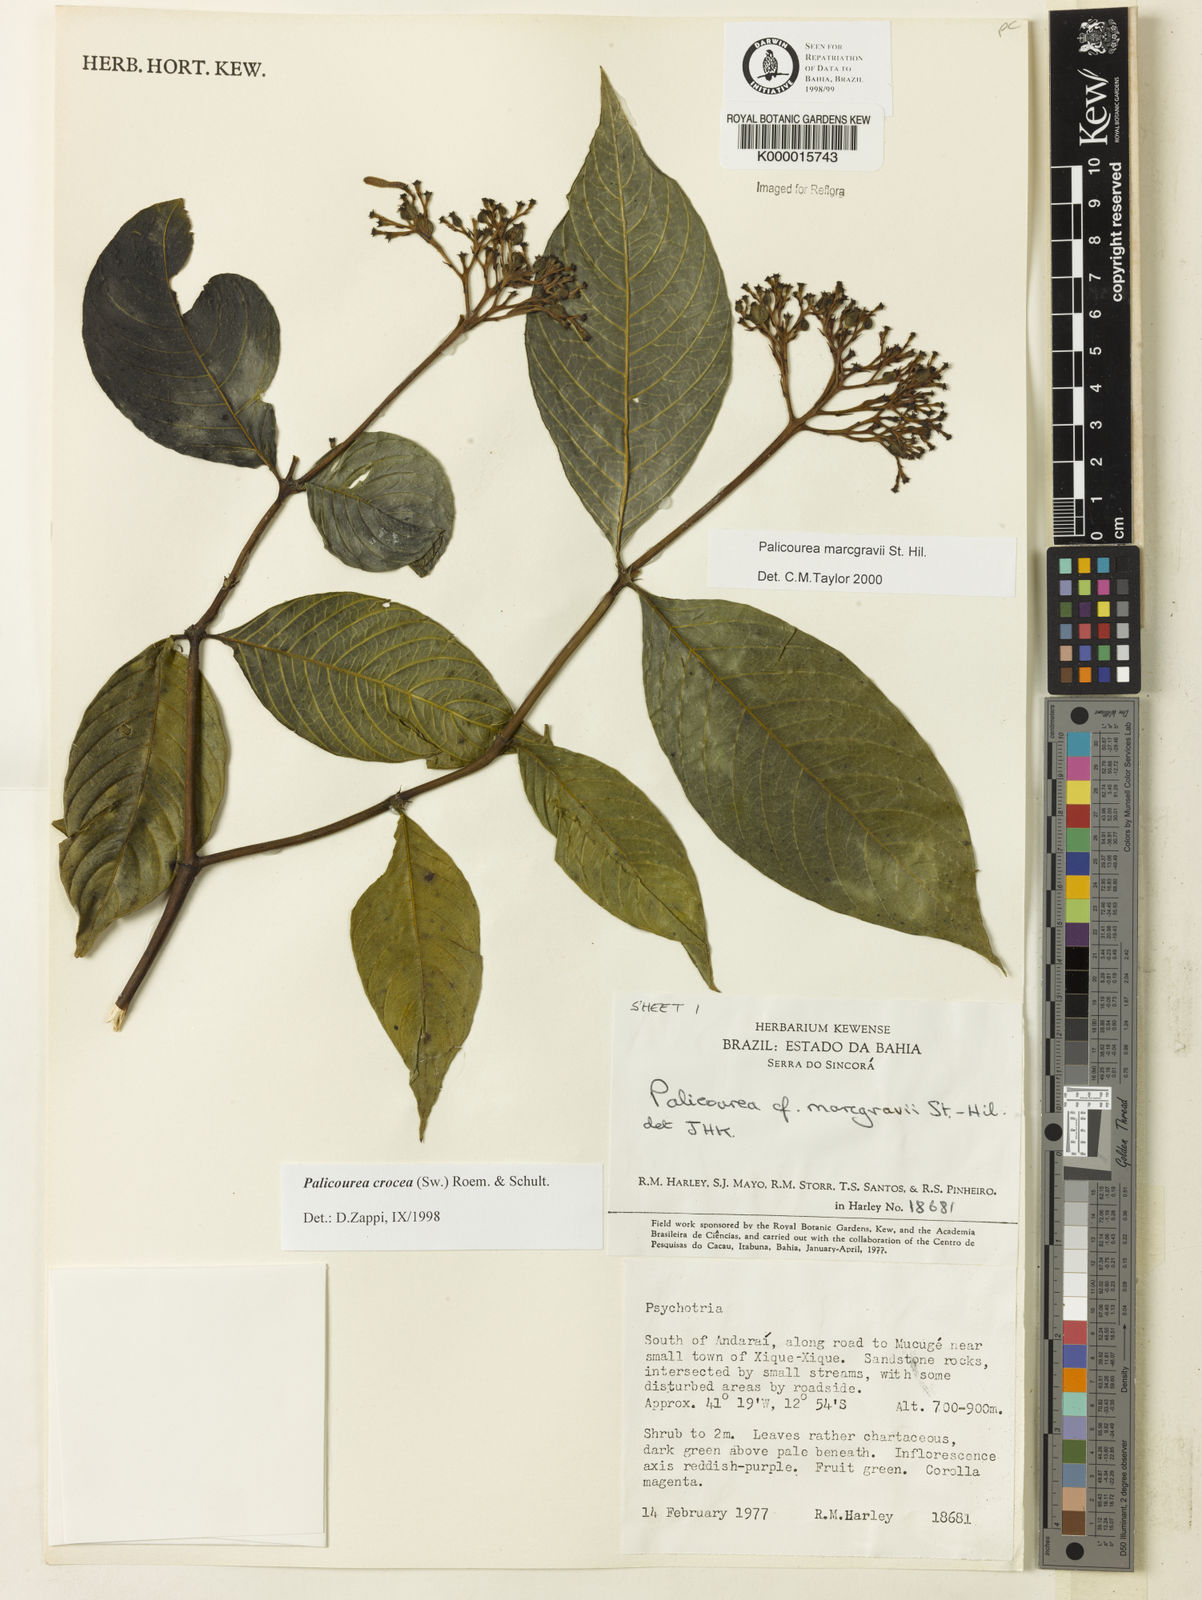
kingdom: Plantae
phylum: Tracheophyta
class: Magnoliopsida
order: Gentianales
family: Rubiaceae
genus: Palicourea
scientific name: Palicourea marcgravii
